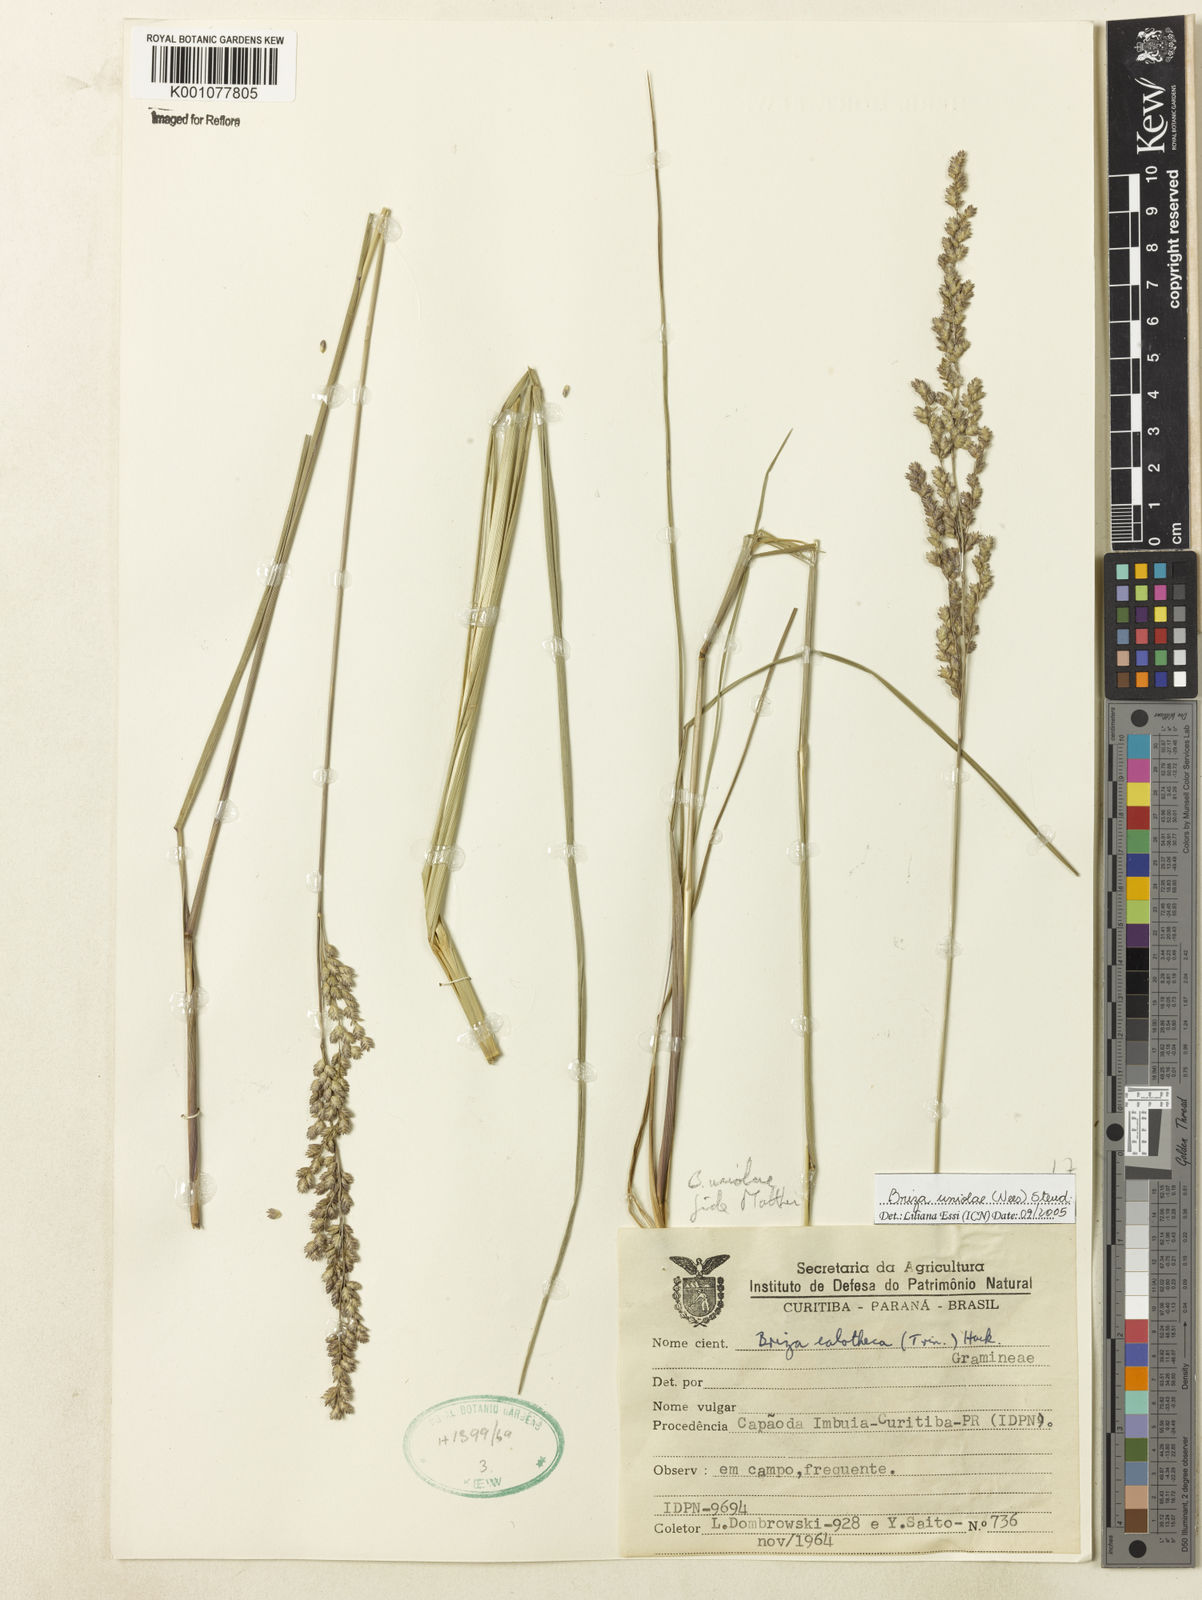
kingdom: Plantae
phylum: Tracheophyta
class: Liliopsida
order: Poales
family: Poaceae
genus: Poidium
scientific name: Poidium uniolae
